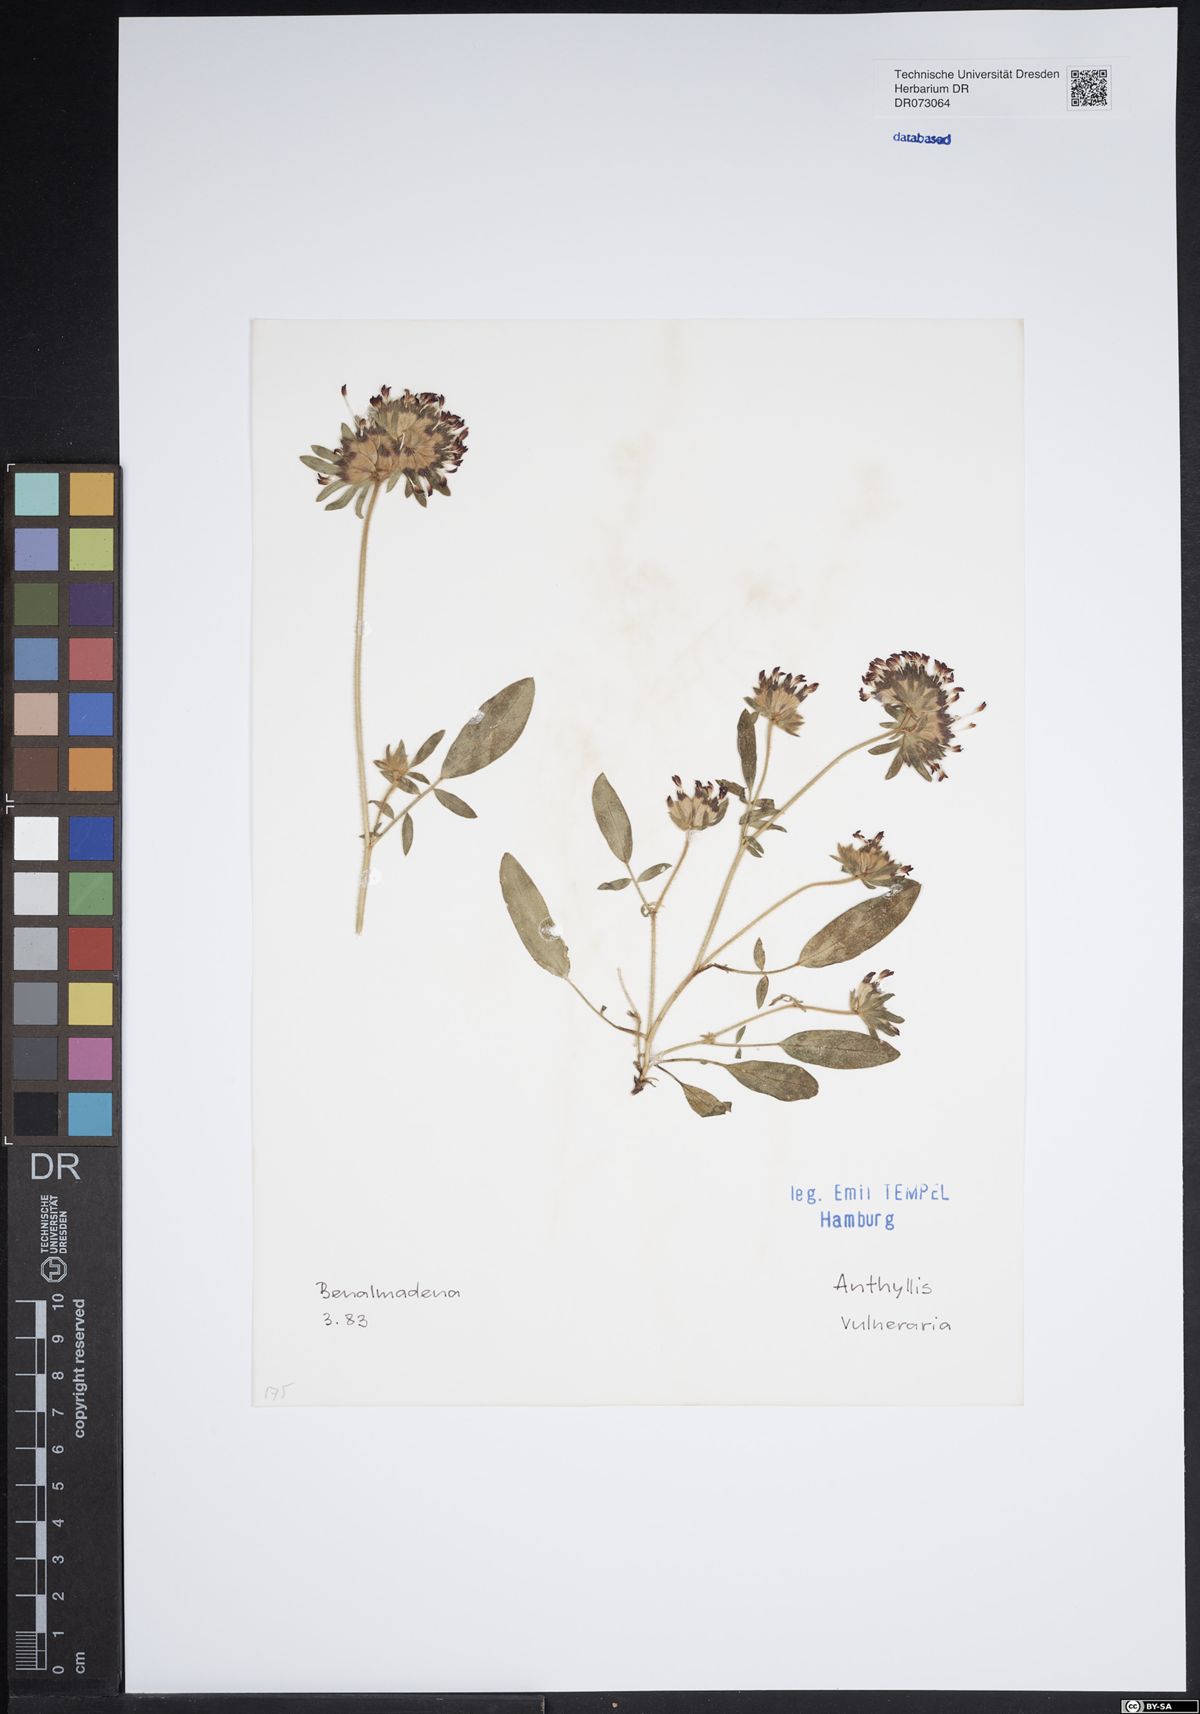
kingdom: Plantae
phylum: Tracheophyta
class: Magnoliopsida
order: Fabales
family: Fabaceae
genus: Anthyllis
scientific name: Anthyllis vulneraria
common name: Kidney vetch
